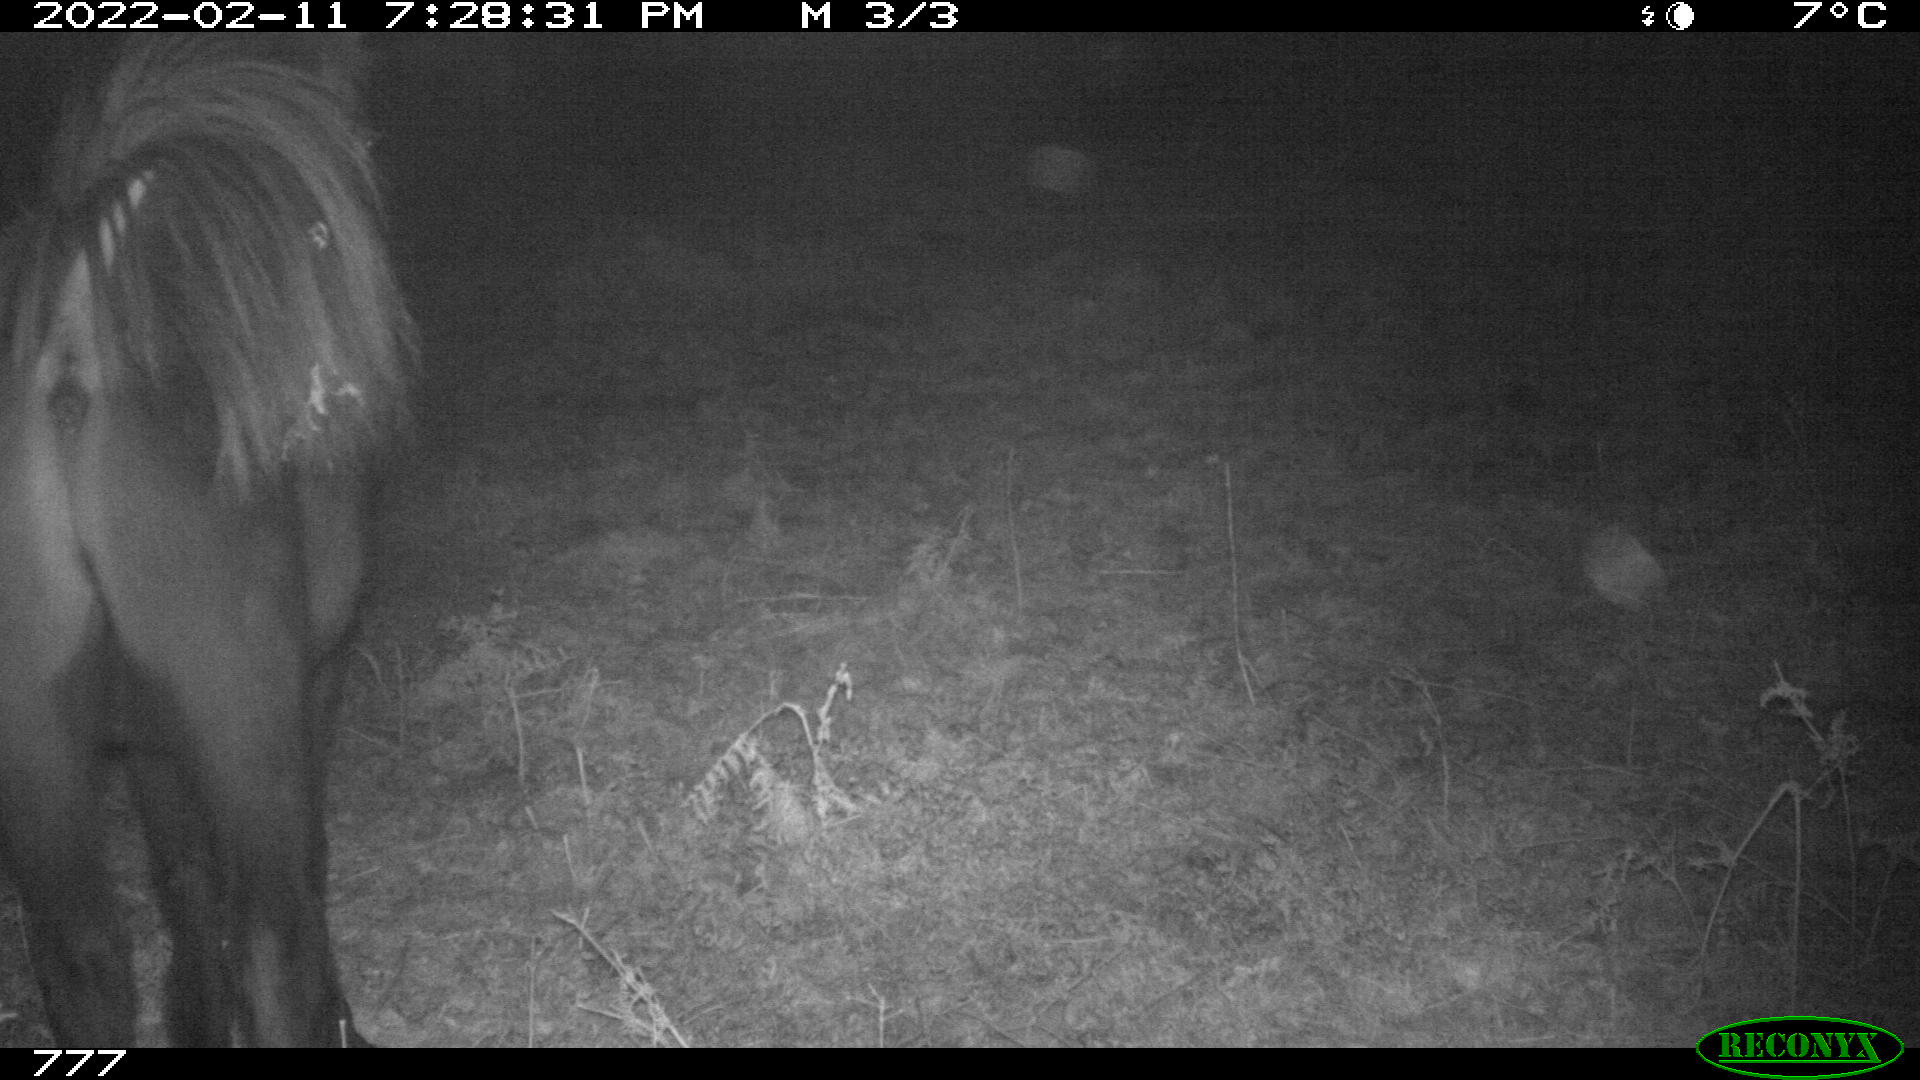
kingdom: Animalia
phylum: Chordata
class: Mammalia
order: Perissodactyla
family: Equidae
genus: Equus
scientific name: Equus caballus
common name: Horse
